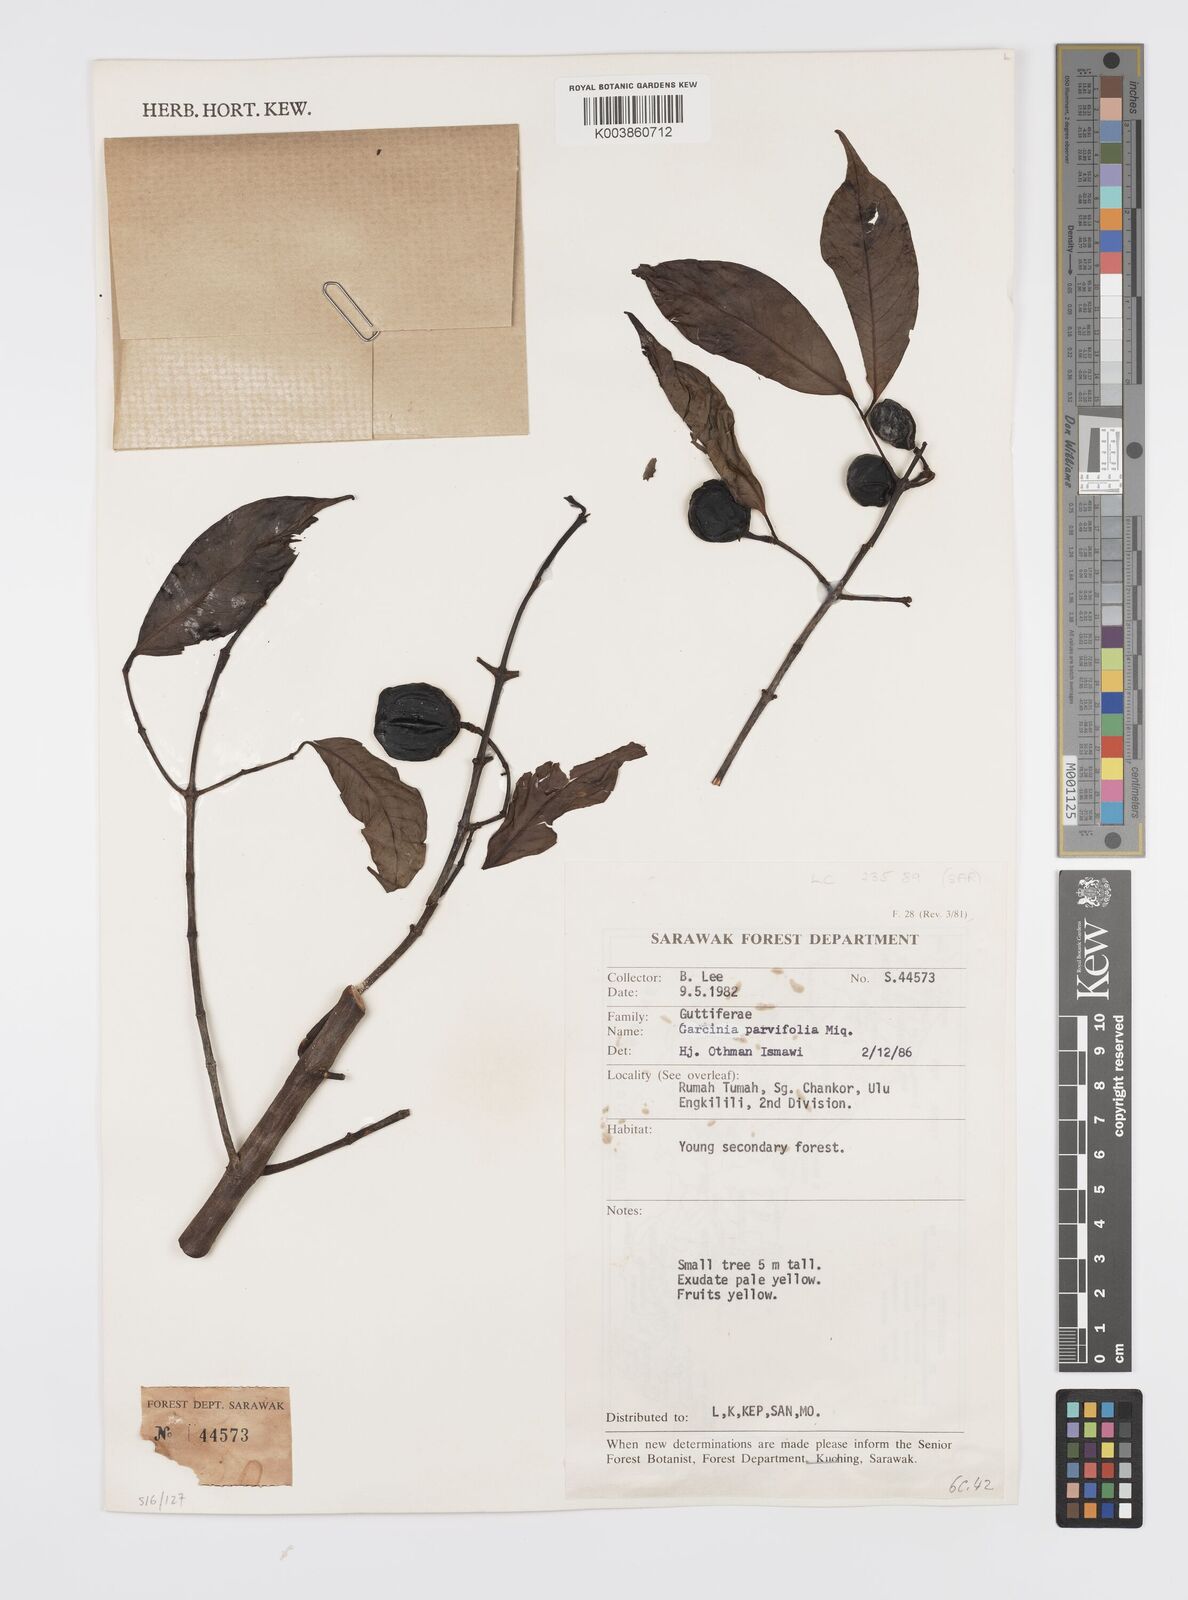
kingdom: Plantae
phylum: Tracheophyta
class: Magnoliopsida
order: Malpighiales
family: Clusiaceae
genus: Garcinia
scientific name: Garcinia parvifolia
